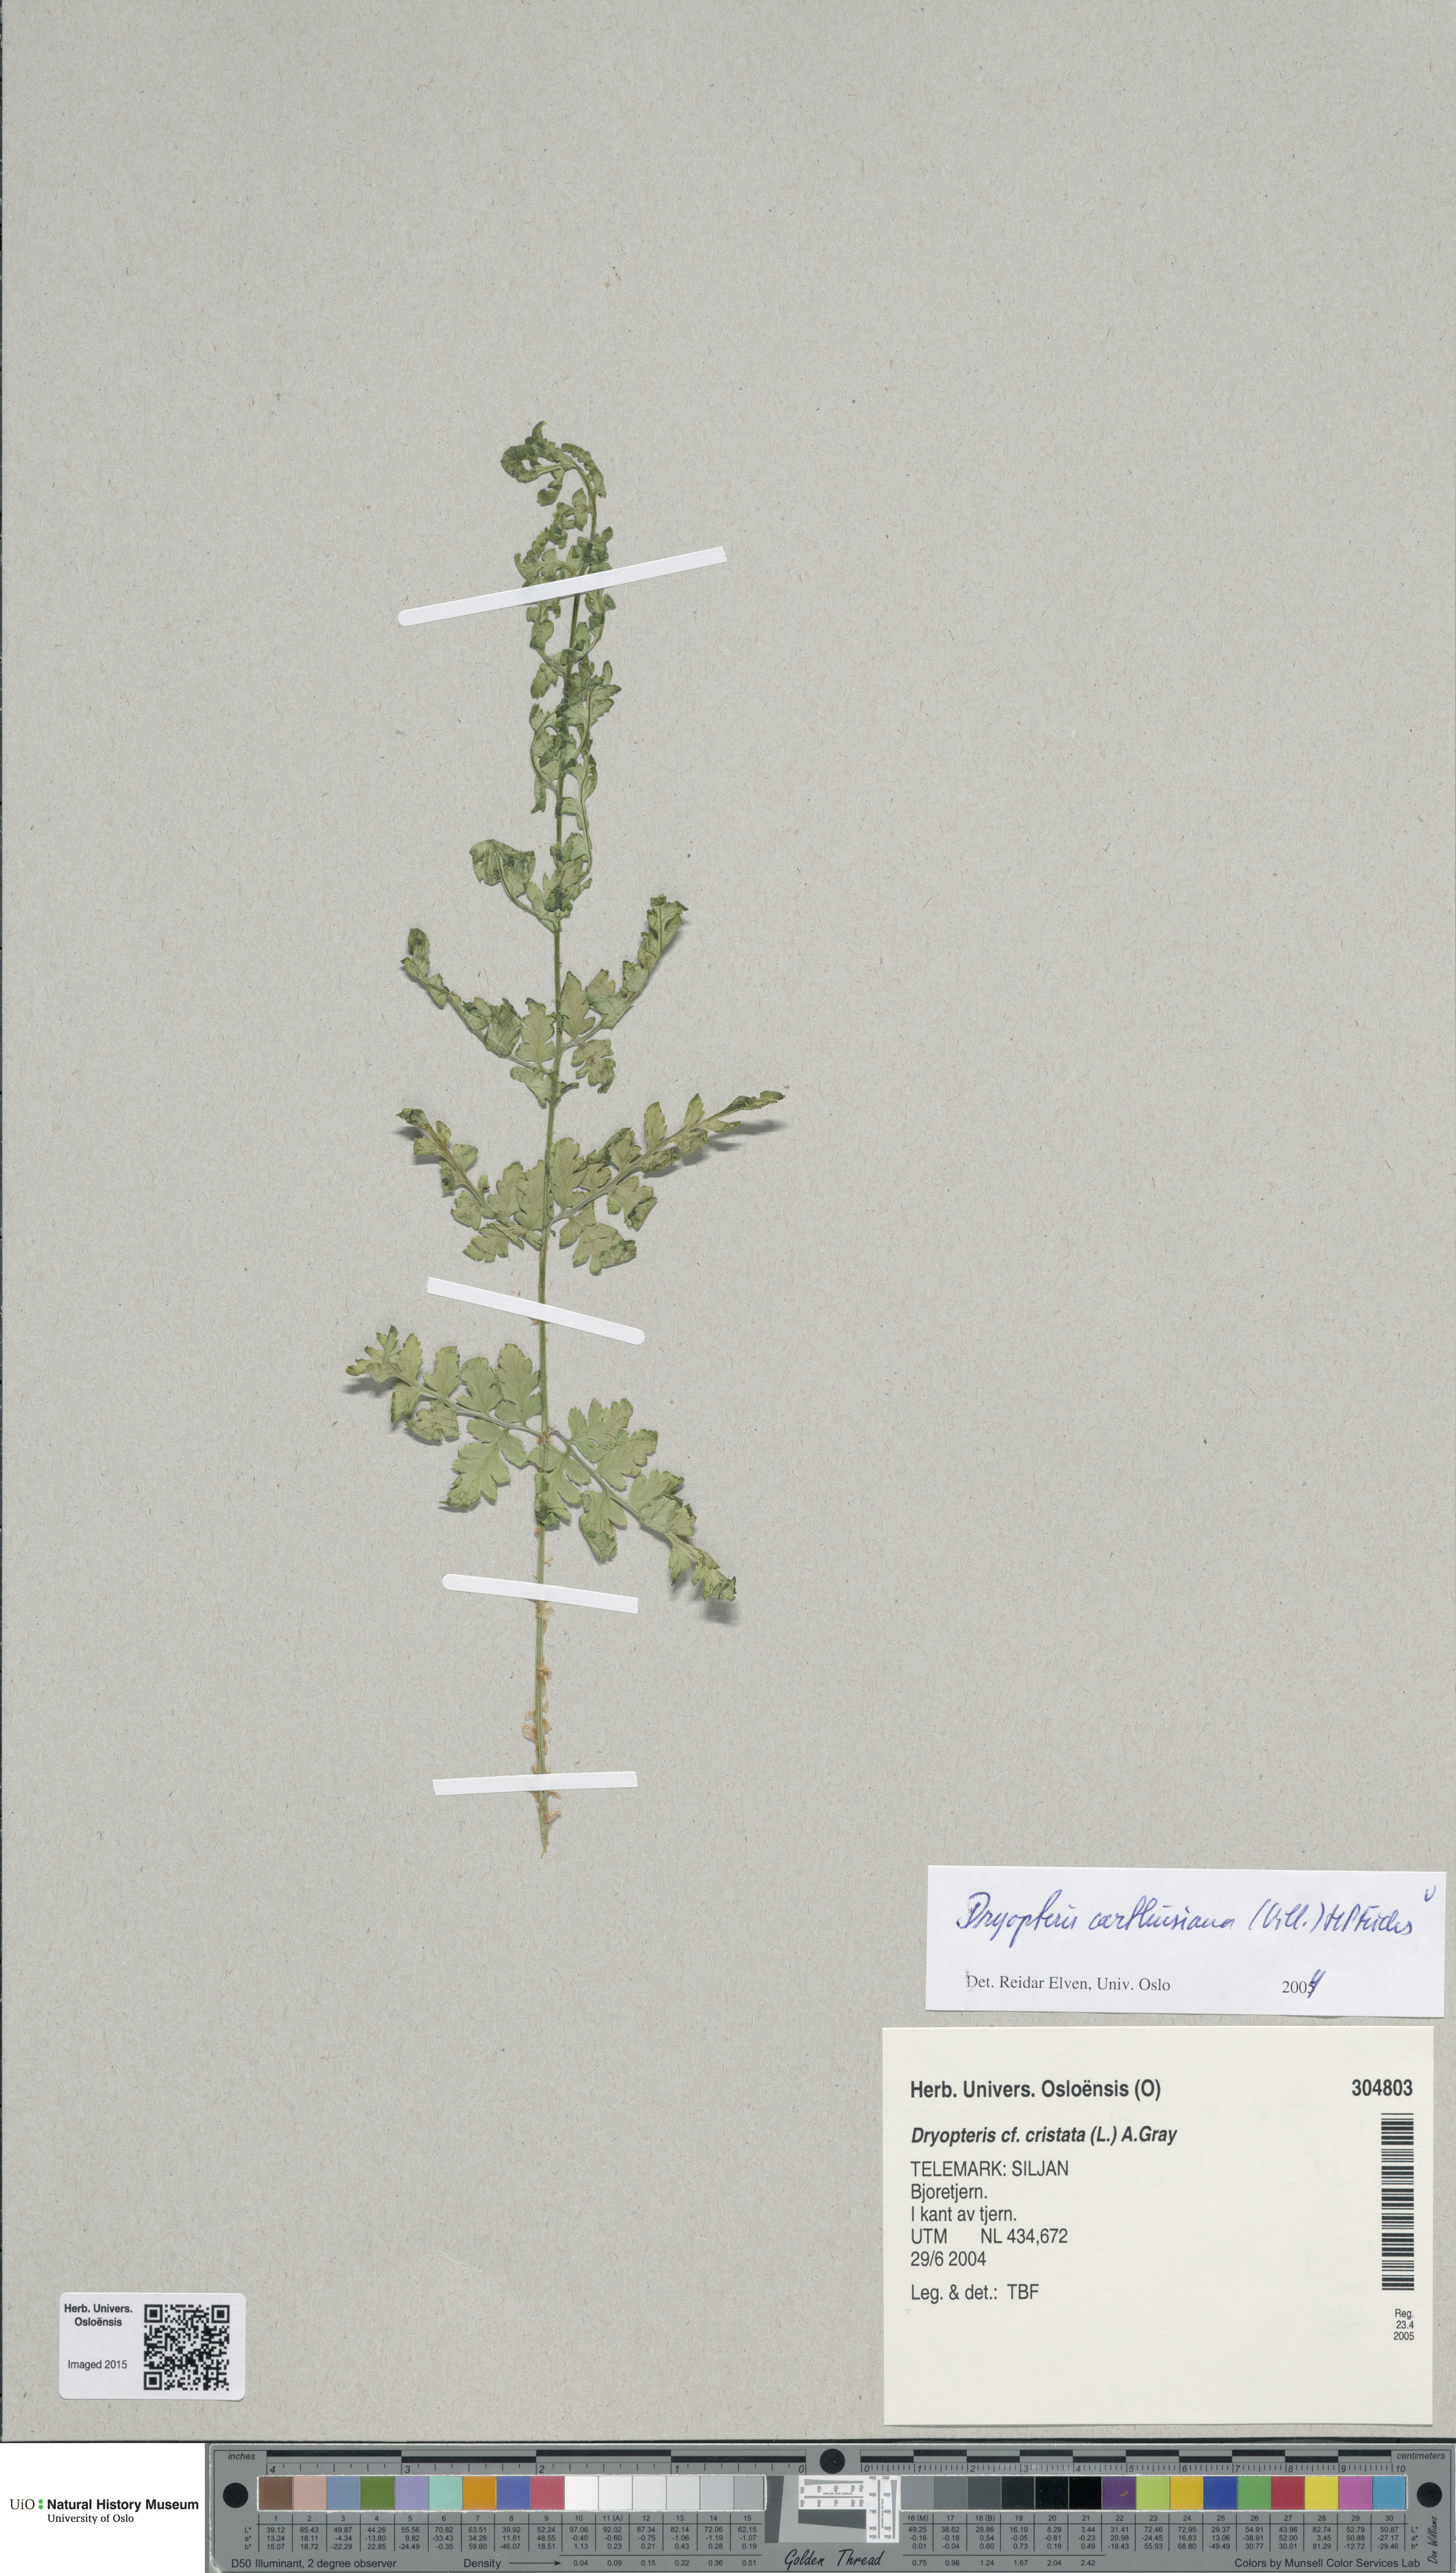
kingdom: Plantae
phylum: Tracheophyta
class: Polypodiopsida
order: Polypodiales
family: Dryopteridaceae
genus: Dryopteris
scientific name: Dryopteris carthusiana
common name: Narrow buckler-fern
